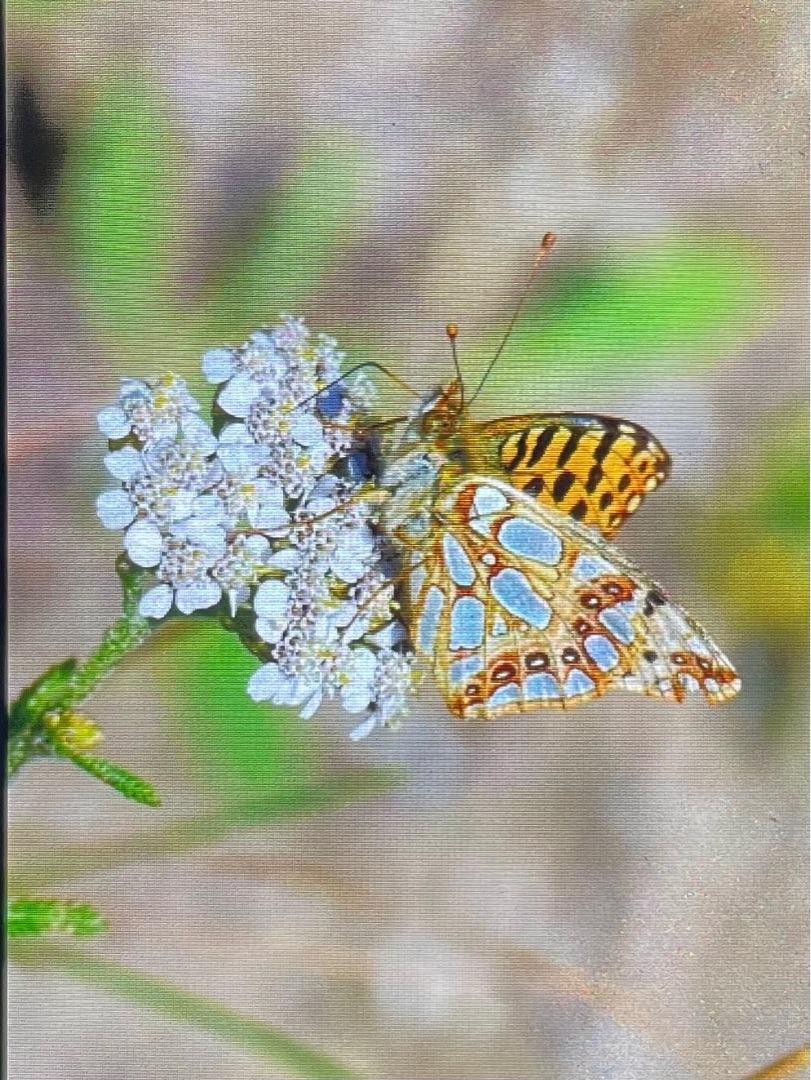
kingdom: Animalia
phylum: Arthropoda
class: Insecta
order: Lepidoptera
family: Nymphalidae
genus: Issoria
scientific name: Issoria lathonia
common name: Storplettet perlemorsommerfugl
